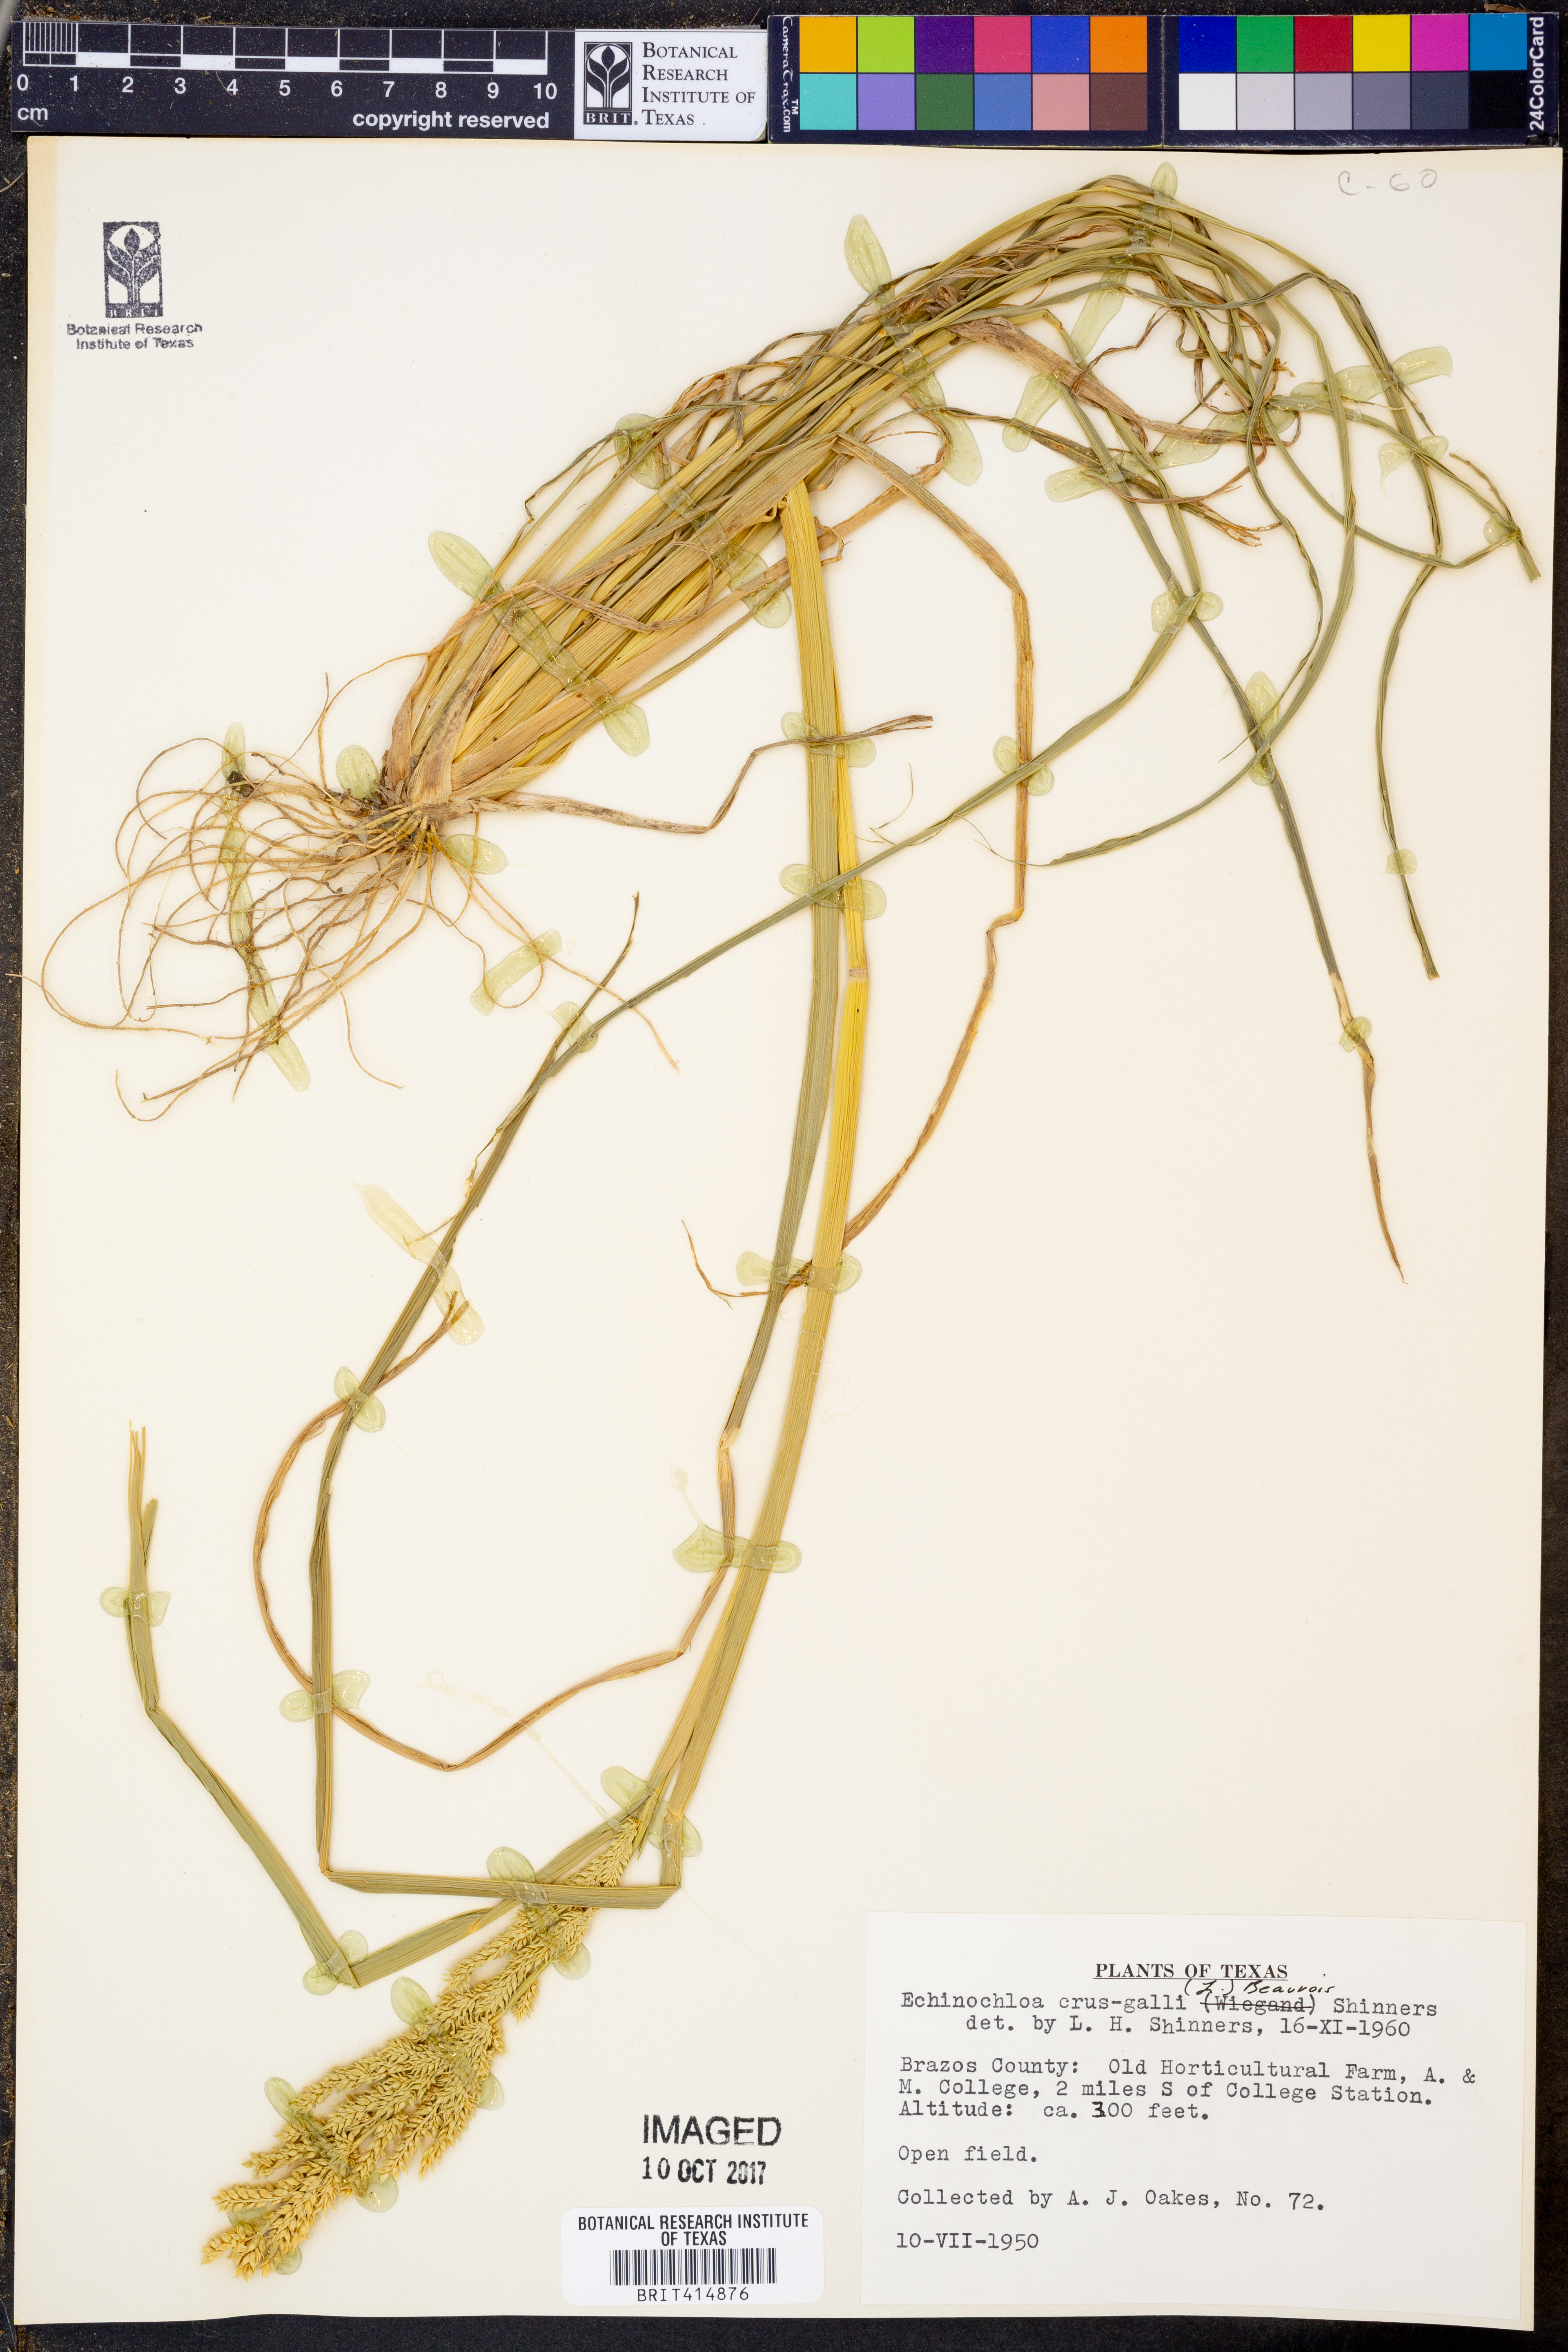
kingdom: Plantae
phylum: Tracheophyta
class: Liliopsida
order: Poales
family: Poaceae
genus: Echinochloa
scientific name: Echinochloa
